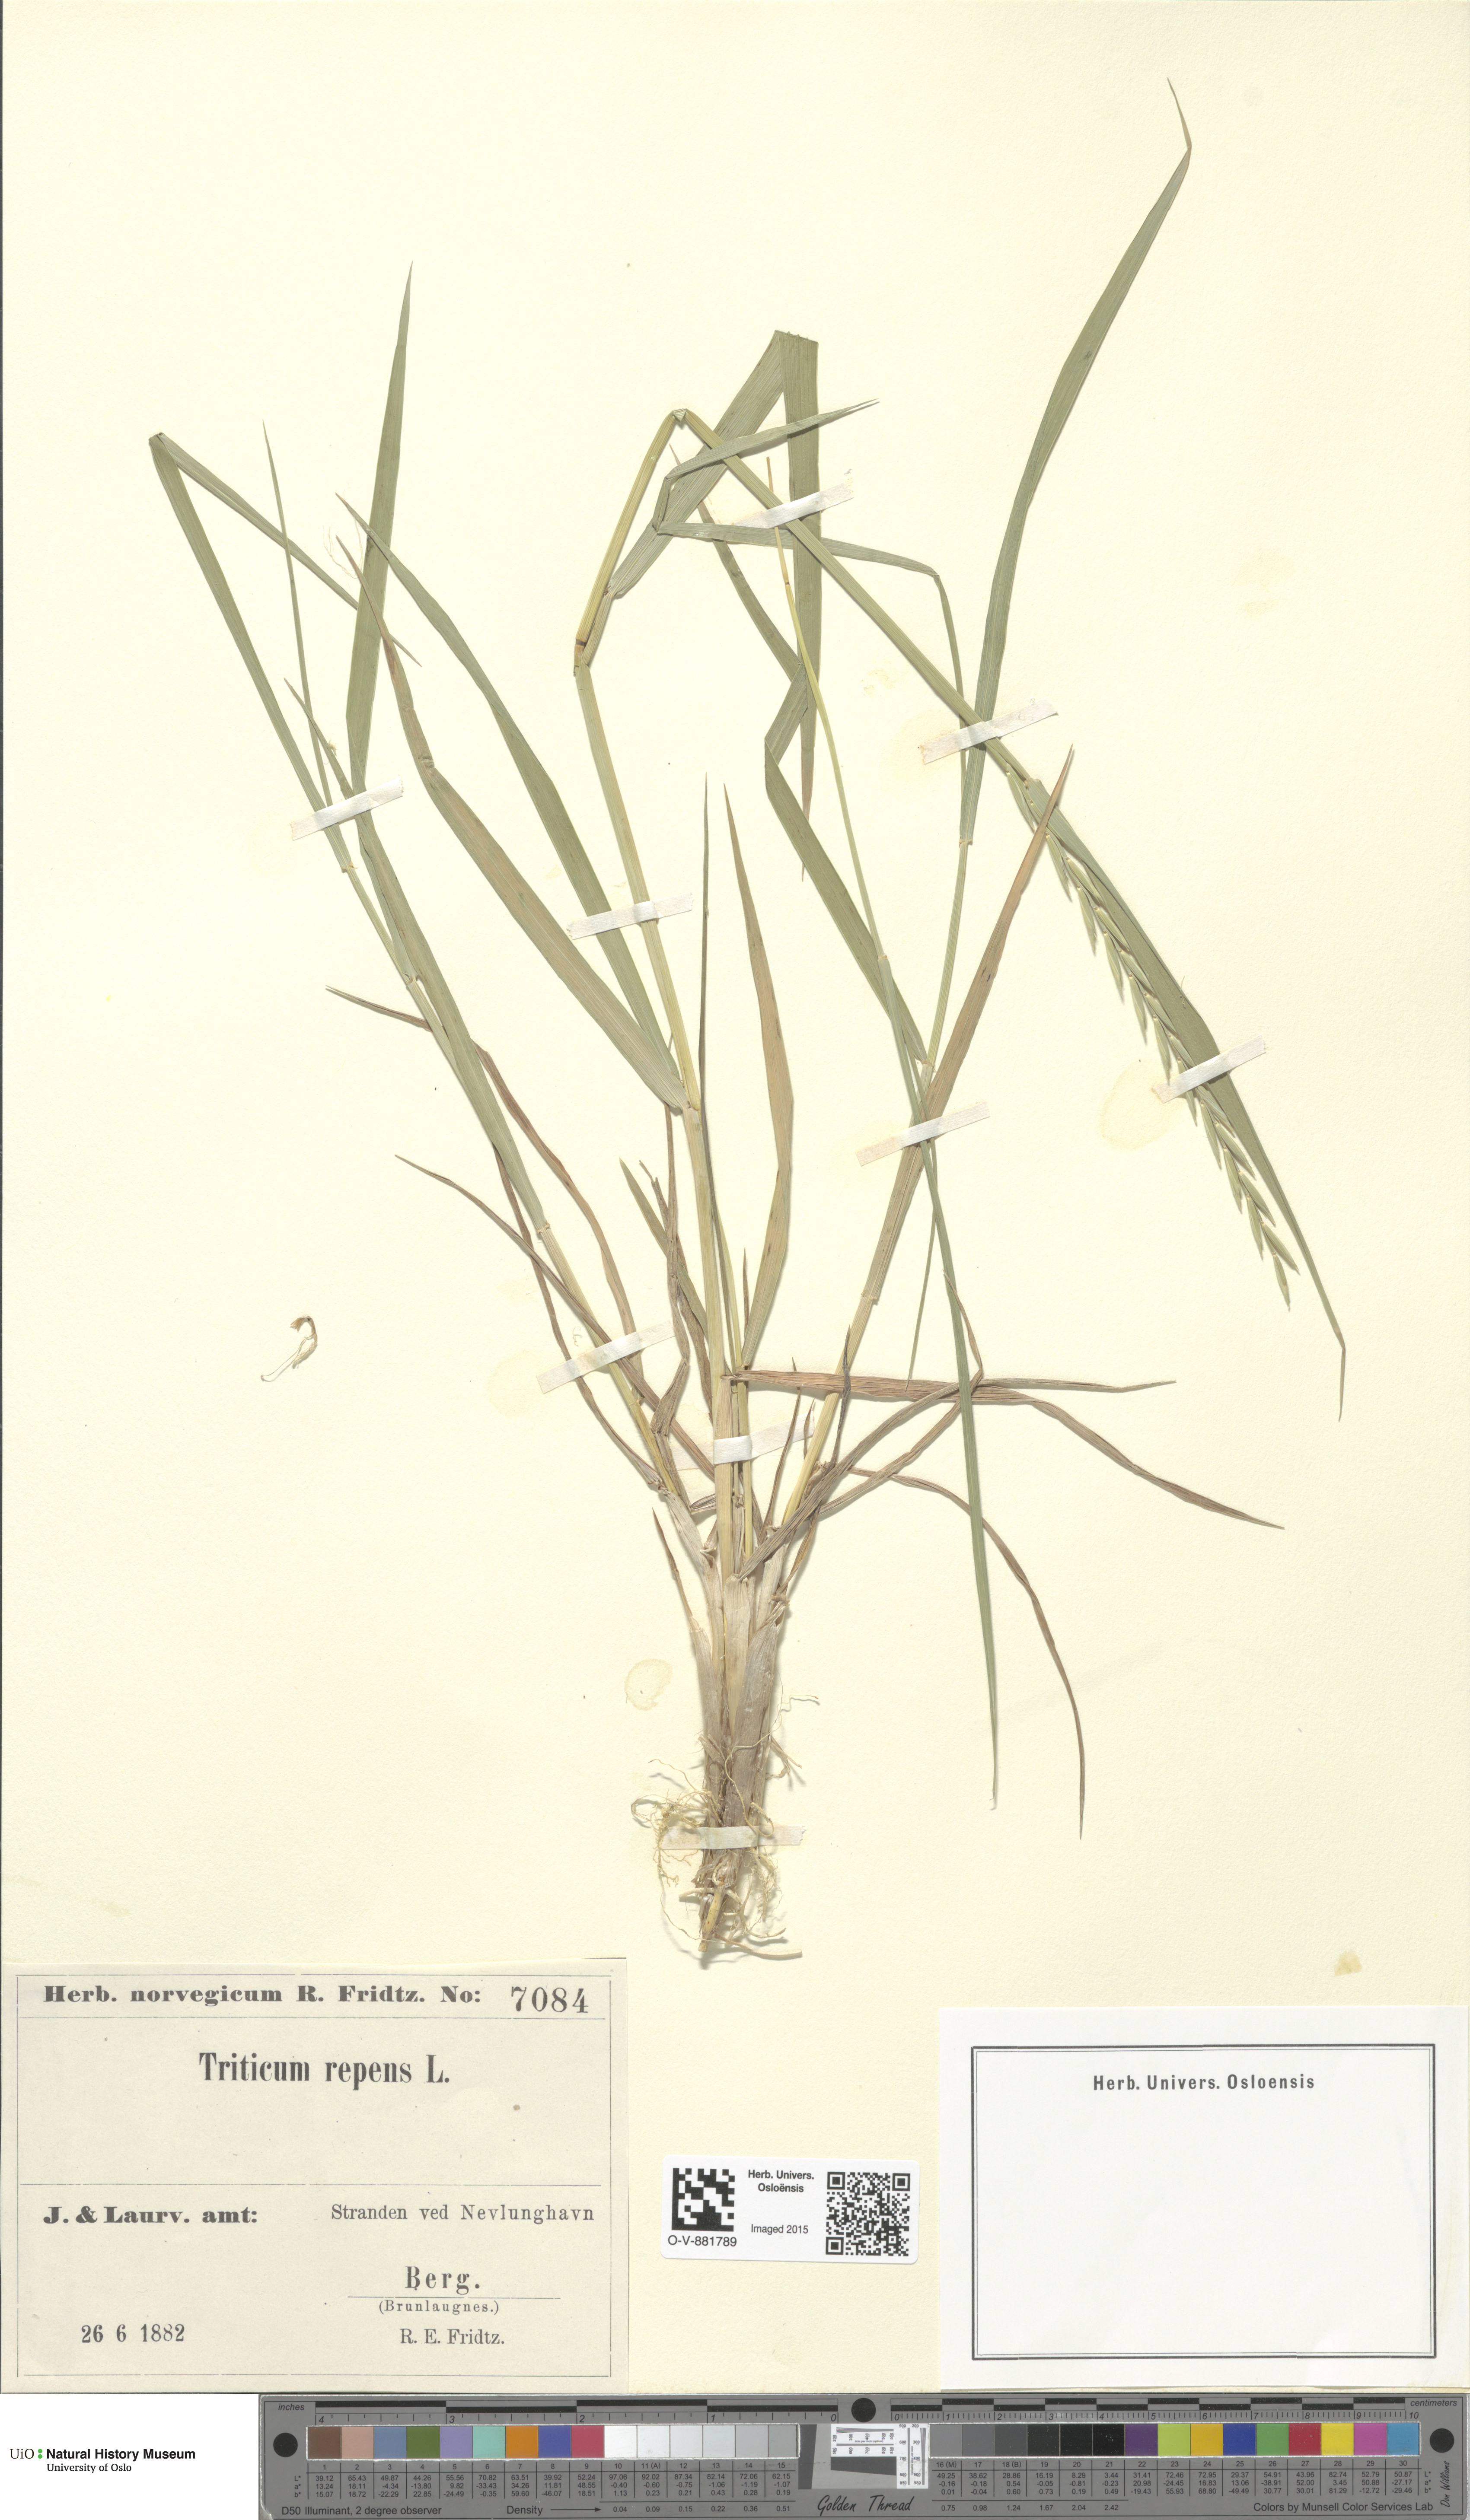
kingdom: Plantae
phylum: Tracheophyta
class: Liliopsida
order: Poales
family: Poaceae
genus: Elymus
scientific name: Elymus repens
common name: Quackgrass
